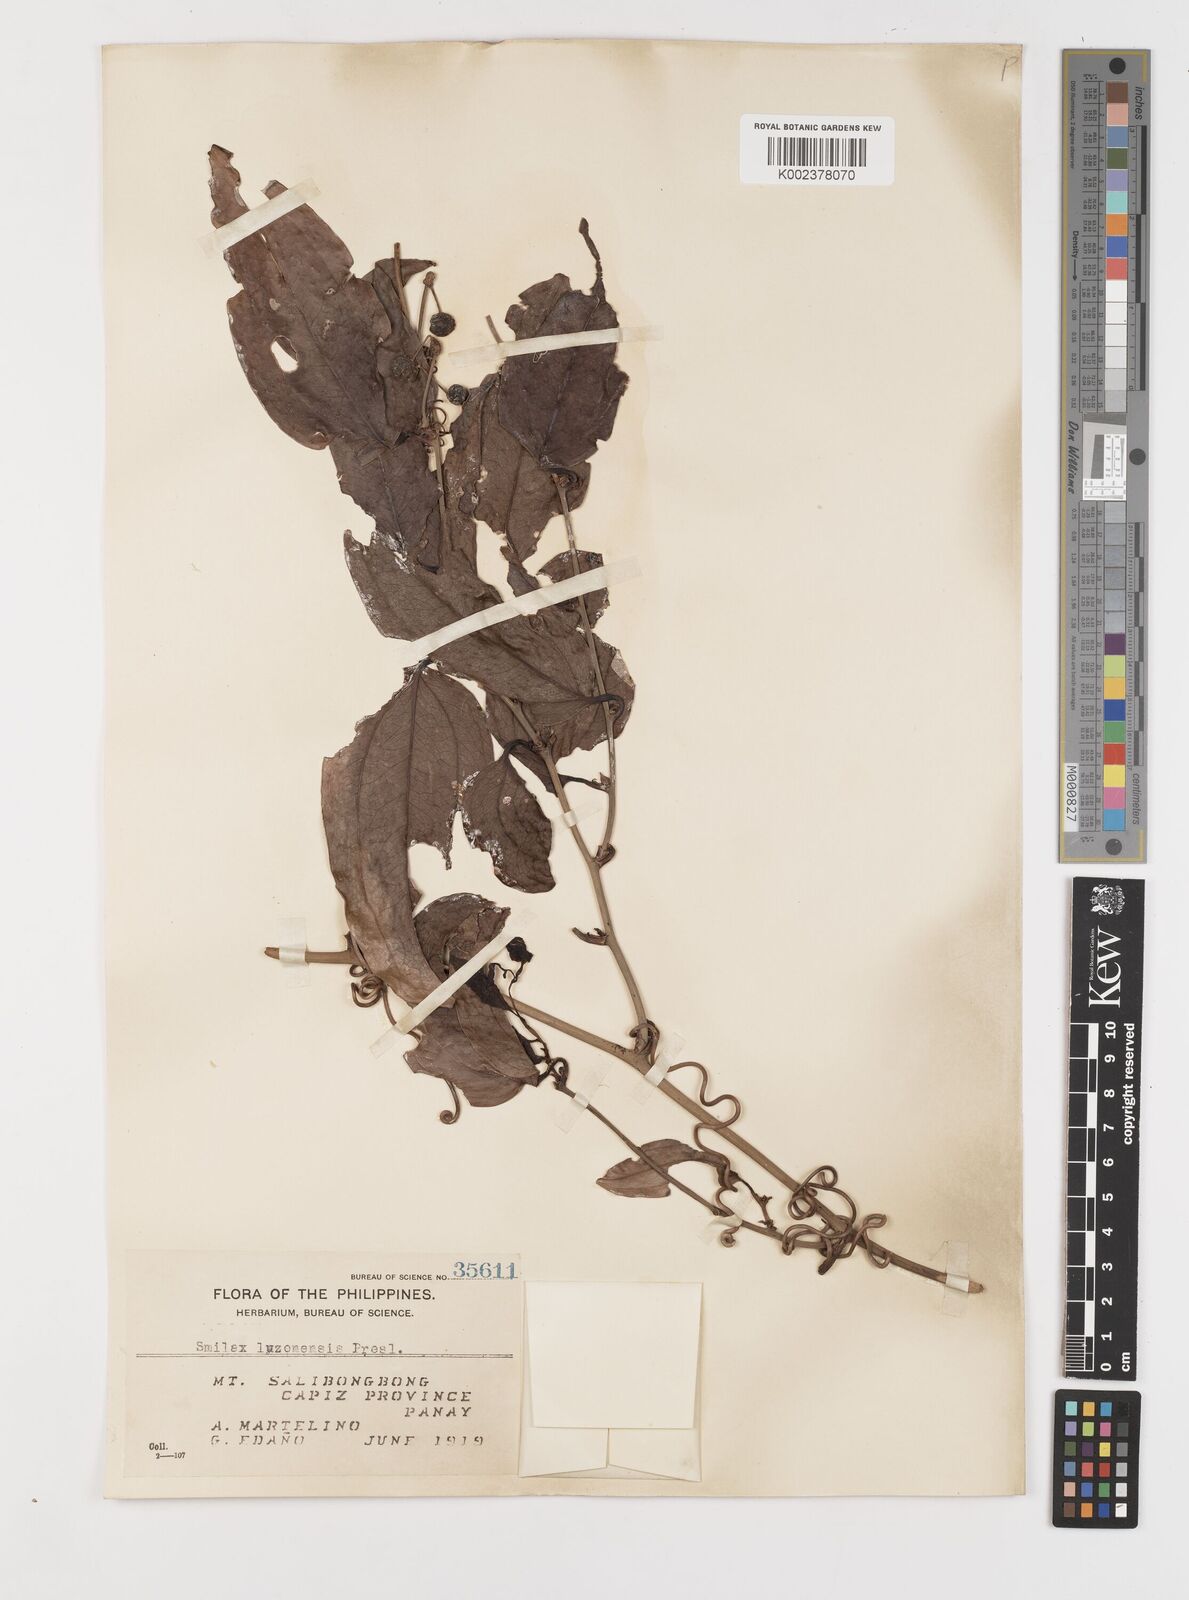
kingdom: Plantae
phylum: Tracheophyta
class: Liliopsida
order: Liliales
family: Smilacaceae
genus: Smilax
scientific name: Smilax luzonensis
